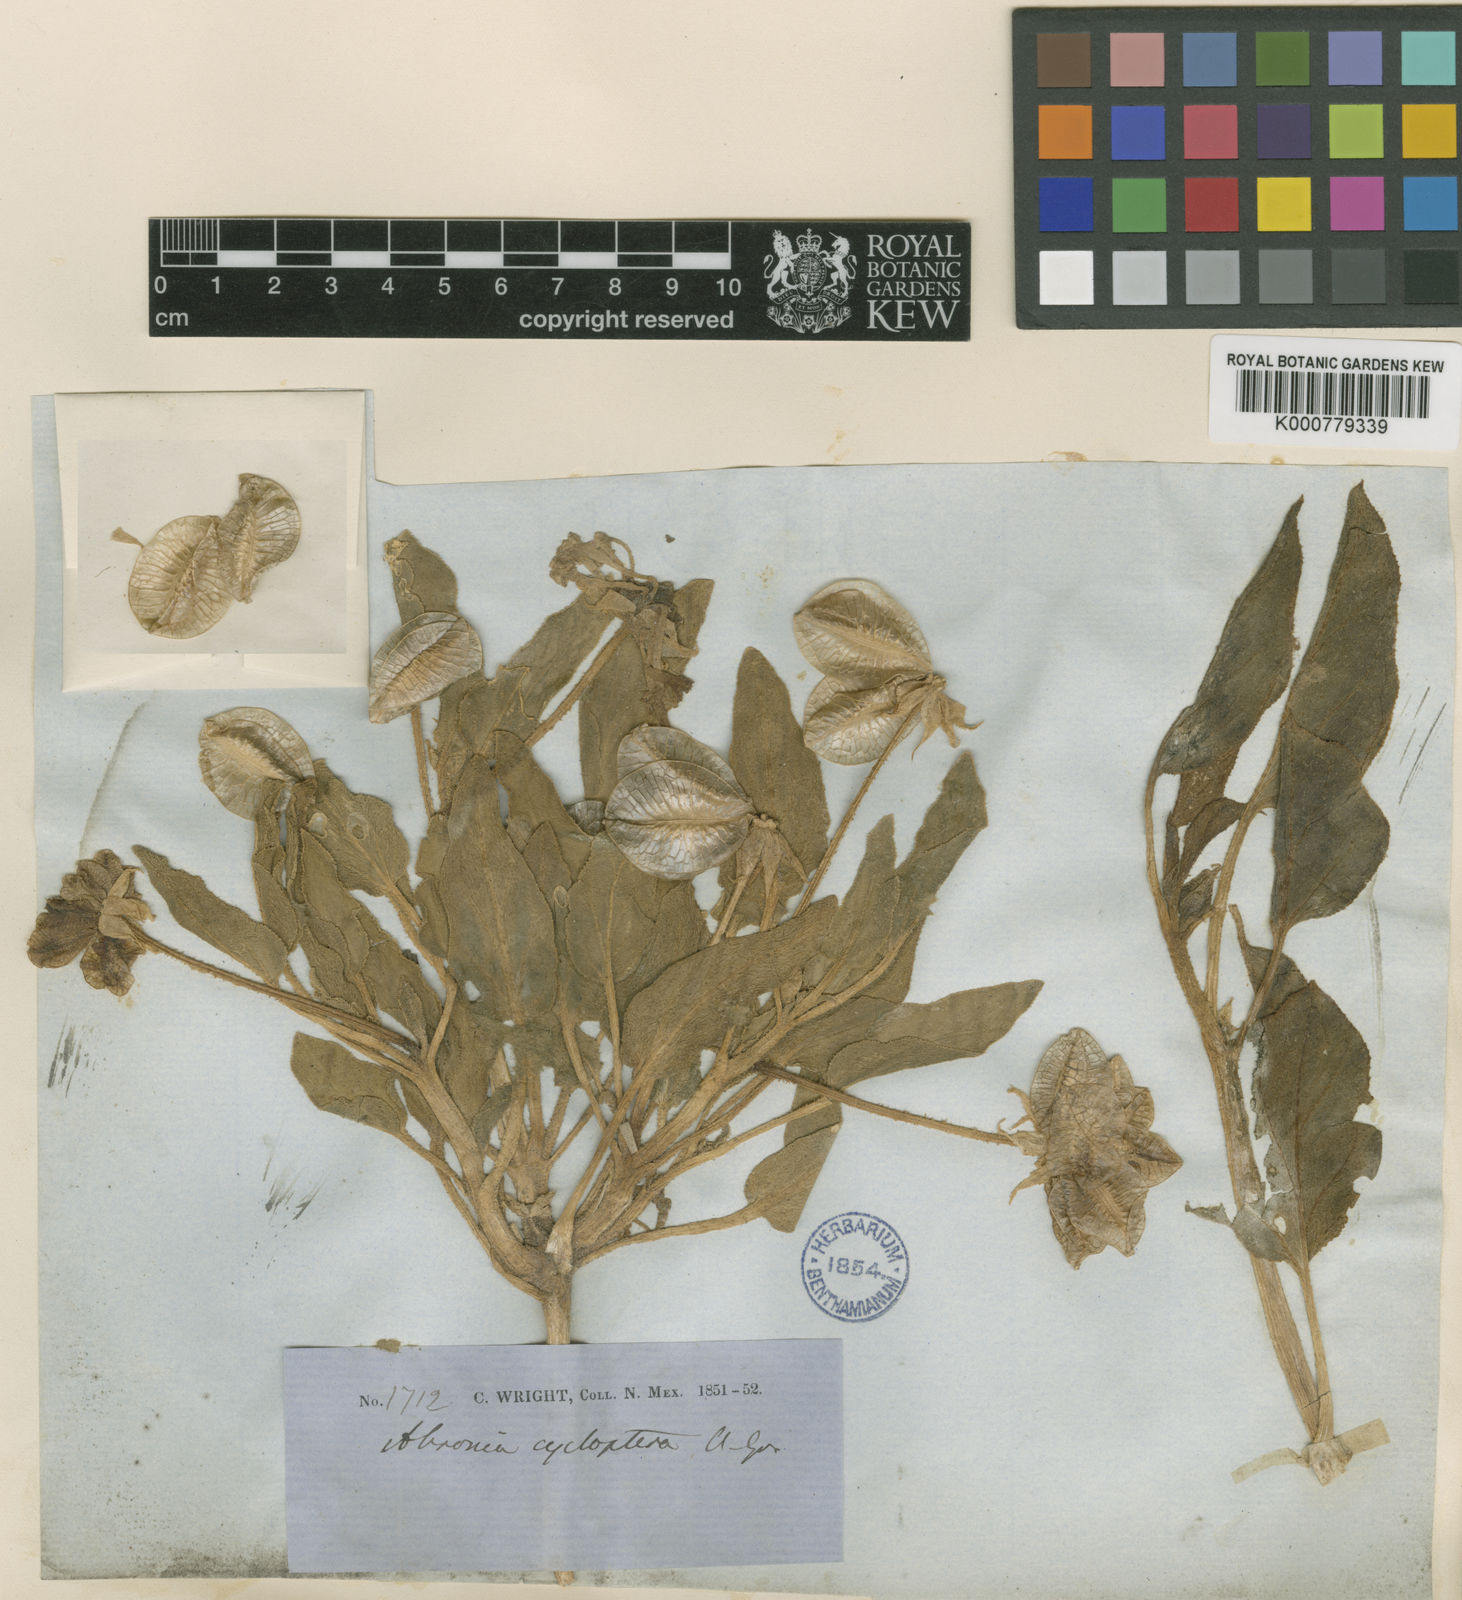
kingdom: Plantae
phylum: Tracheophyta
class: Magnoliopsida
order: Caryophyllales
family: Nyctaginaceae
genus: Tripterocalyx
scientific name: Tripterocalyx micranthus
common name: Small-flowered sand-verbena
